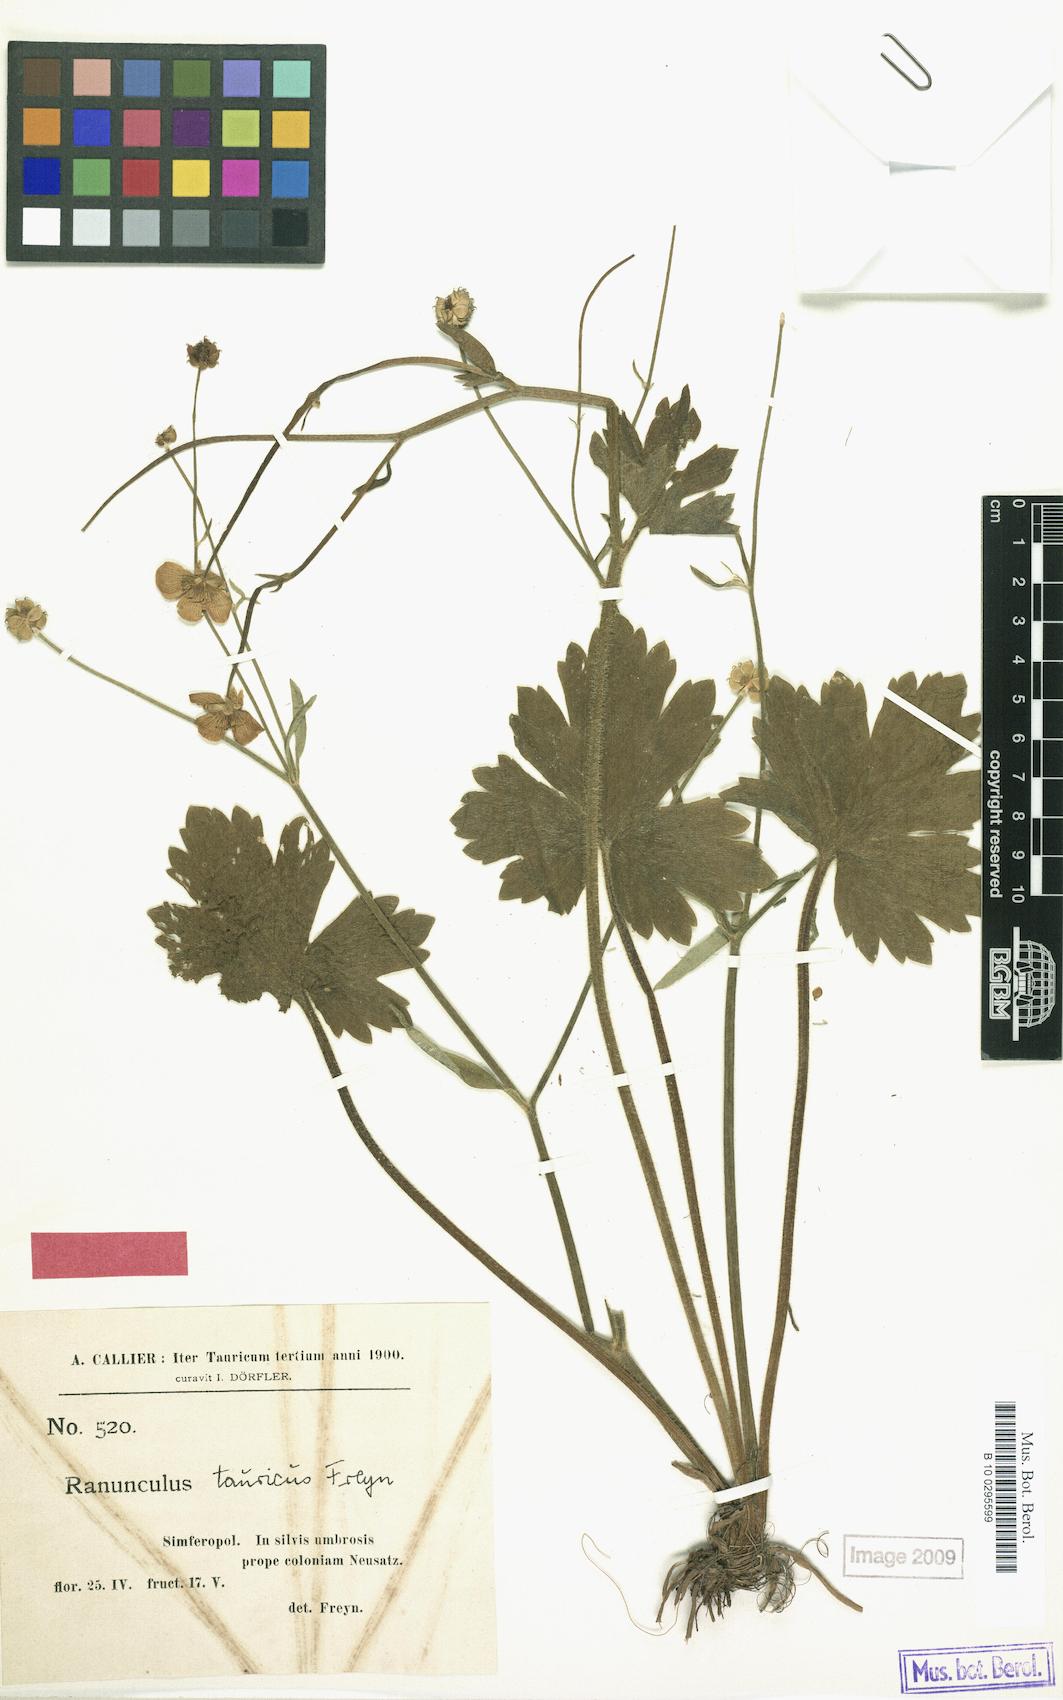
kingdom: Plantae
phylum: Tracheophyta
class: Magnoliopsida
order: Ranunculales
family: Ranunculaceae
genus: Ranunculus
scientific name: Ranunculus
